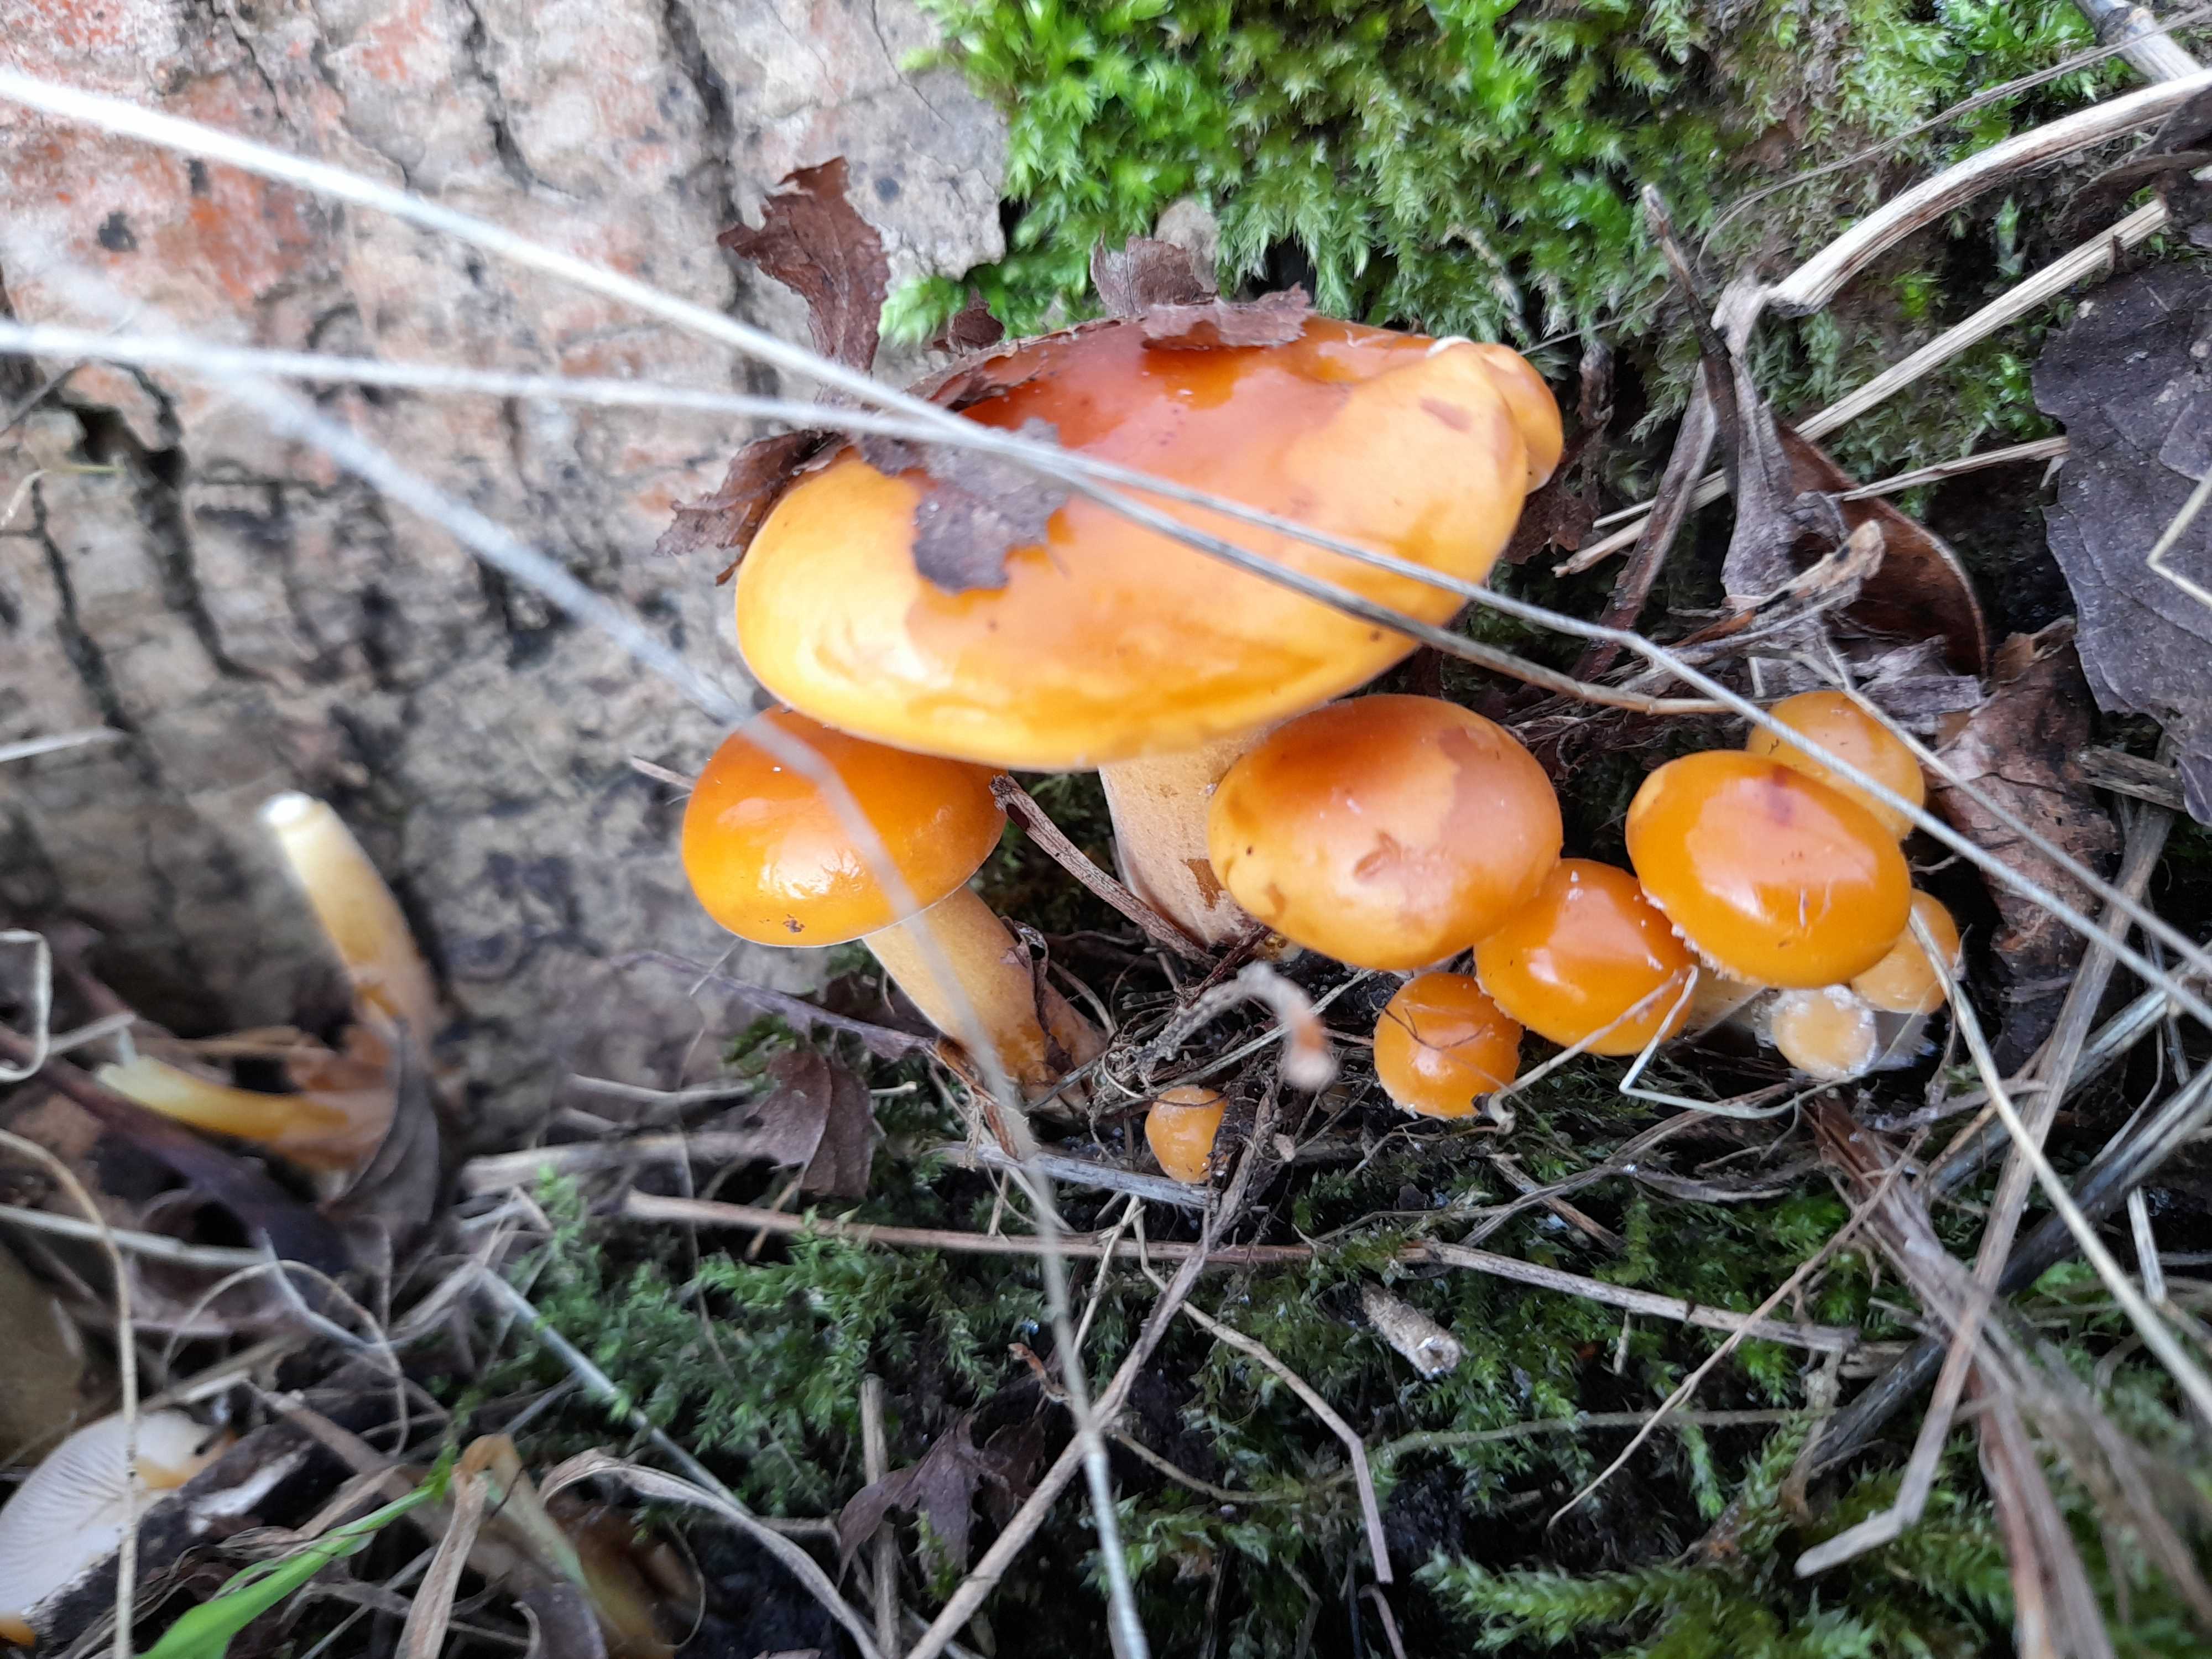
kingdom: Fungi
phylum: Basidiomycota
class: Agaricomycetes
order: Agaricales
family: Physalacriaceae
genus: Flammulina
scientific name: Flammulina velutipes
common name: gul fløjlsfod
